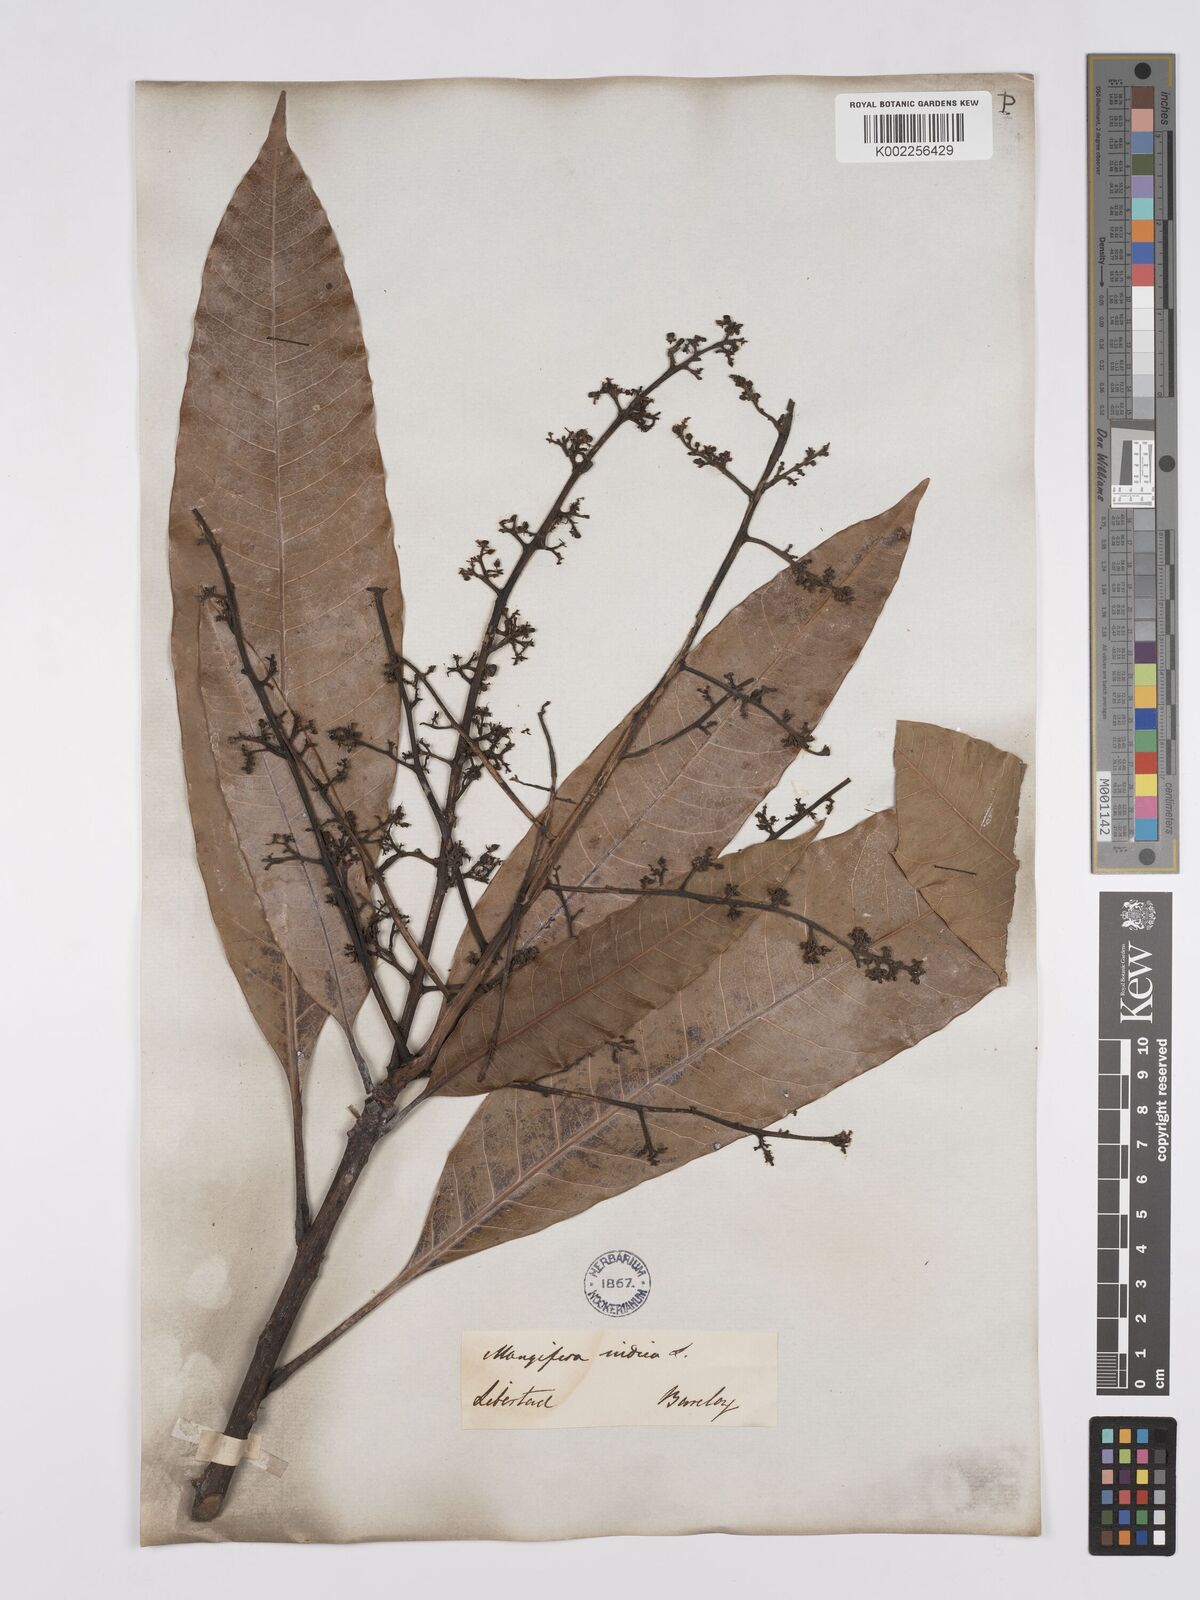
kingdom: Plantae
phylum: Tracheophyta
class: Magnoliopsida
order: Sapindales
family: Anacardiaceae
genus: Mangifera
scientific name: Mangifera indica
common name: Mango
